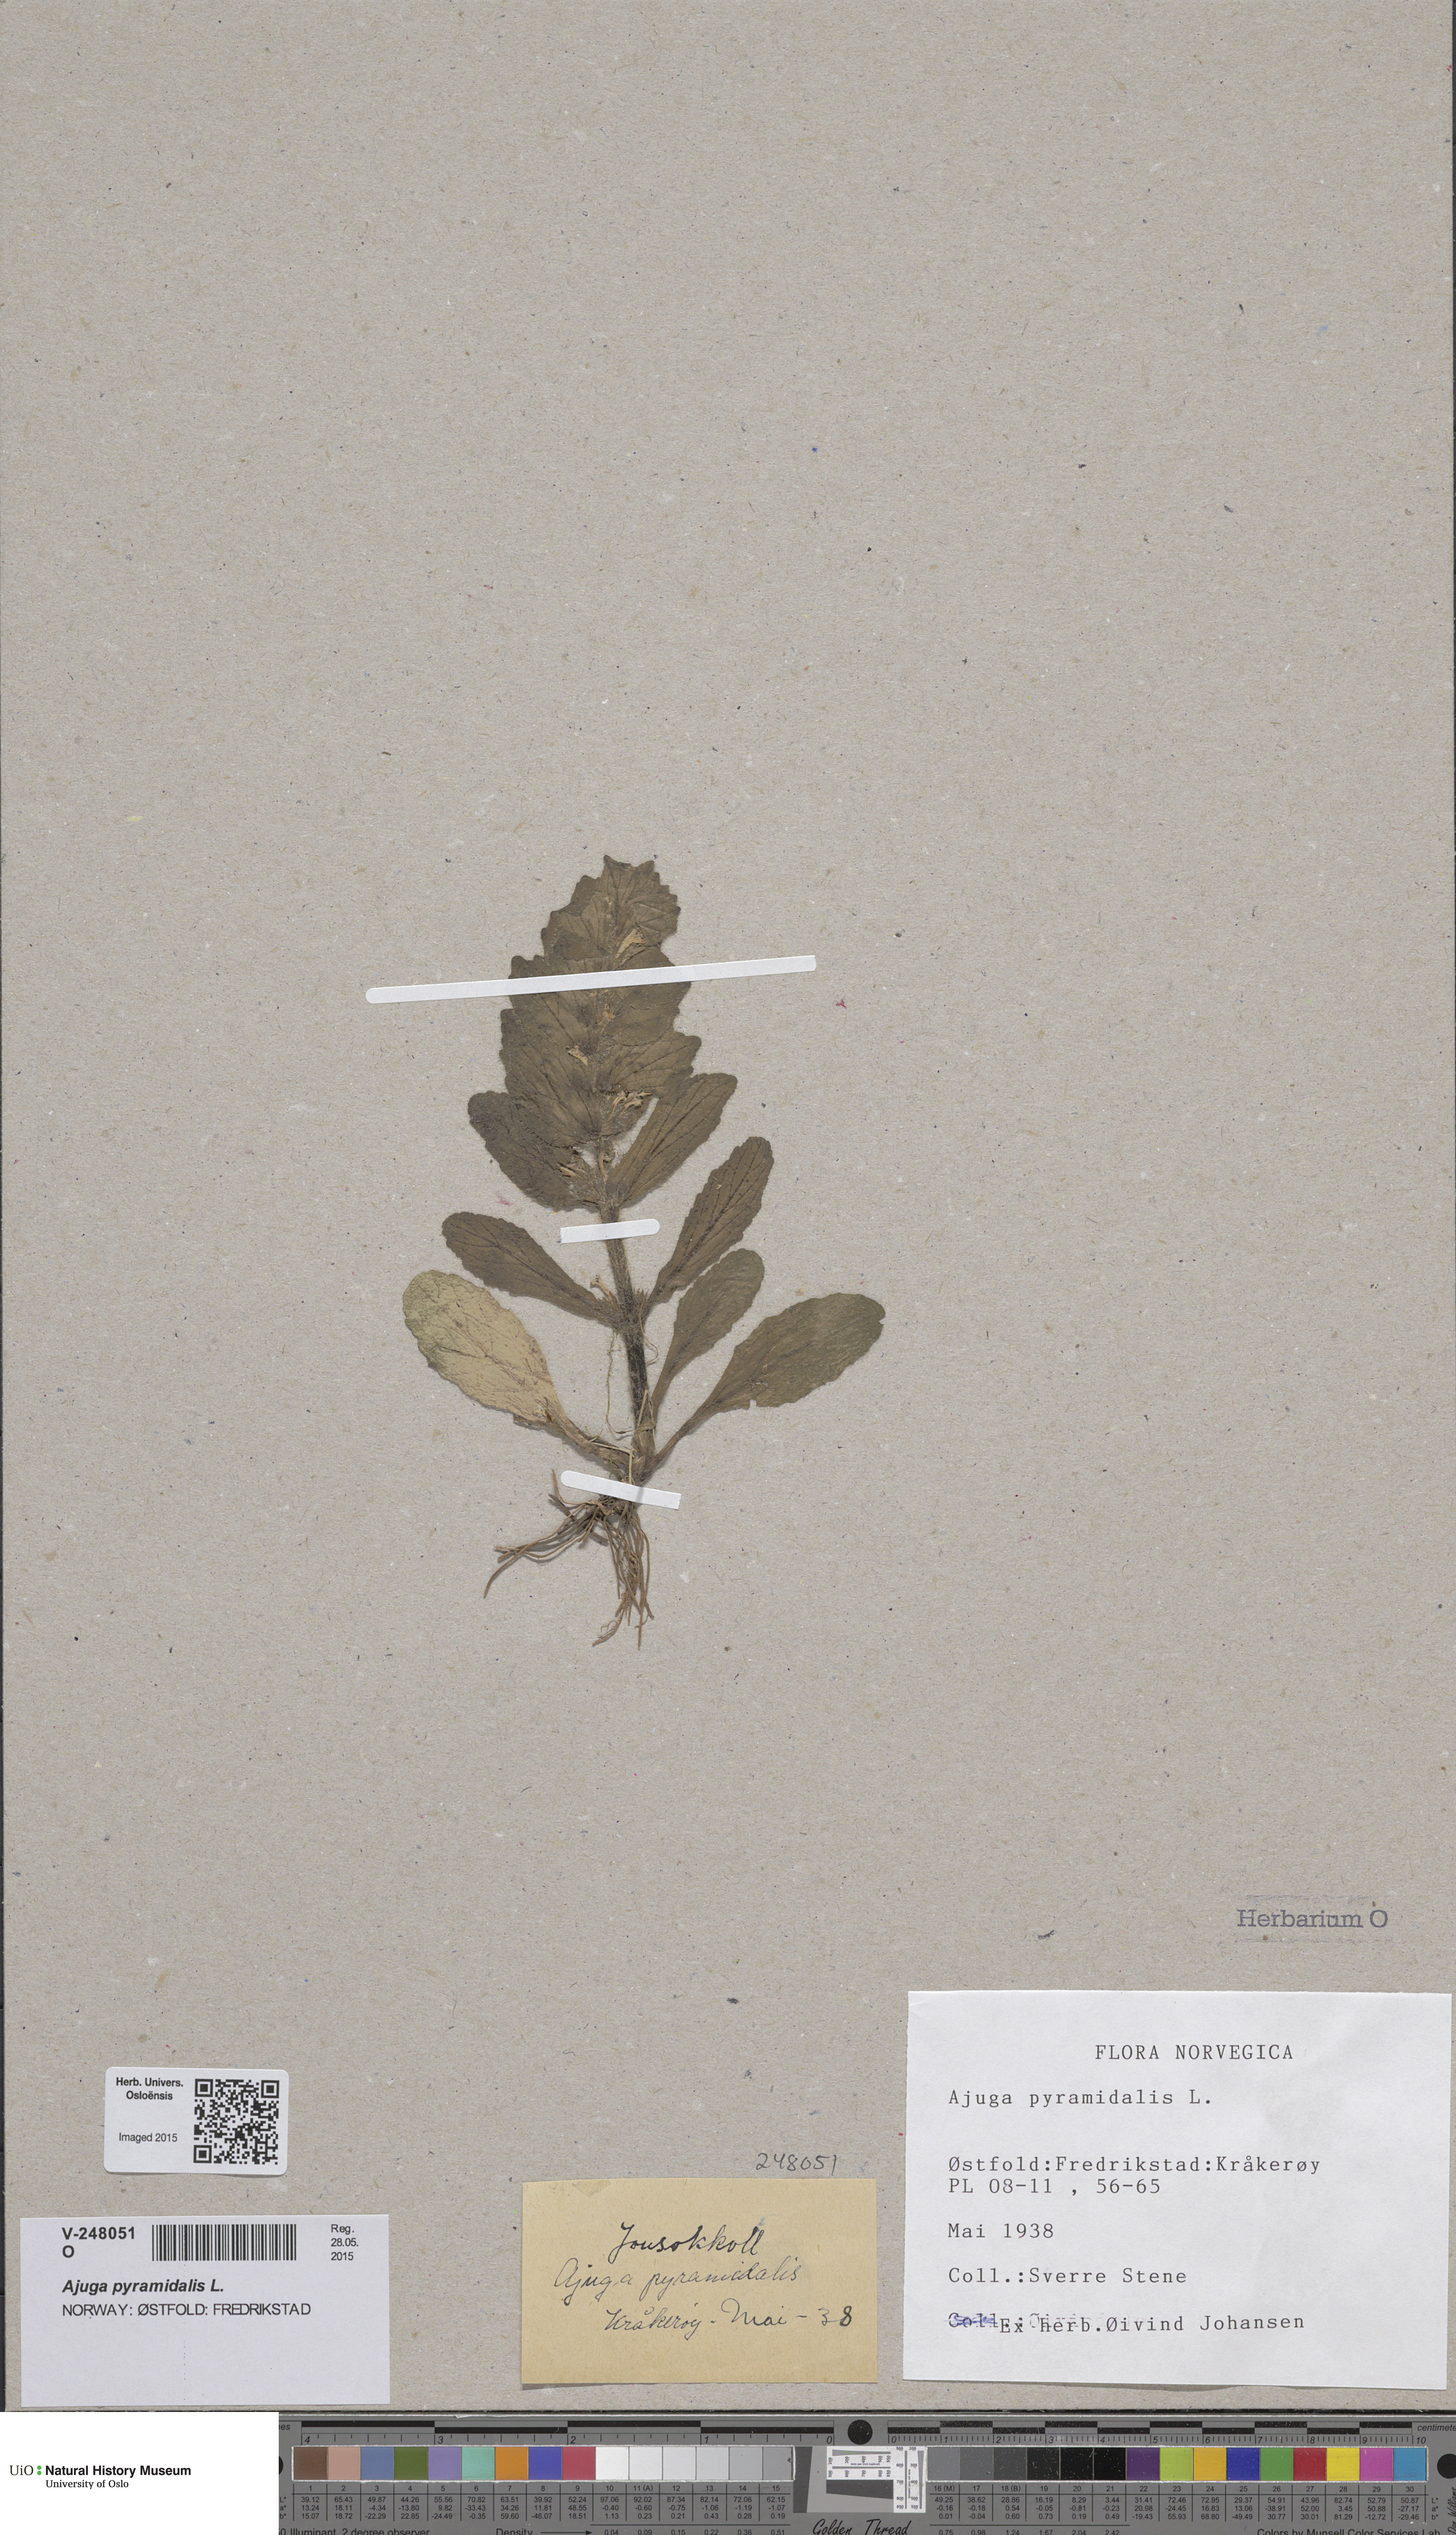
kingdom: Plantae
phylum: Tracheophyta
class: Magnoliopsida
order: Lamiales
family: Lamiaceae
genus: Ajuga
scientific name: Ajuga pyramidalis
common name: Pyramid bugle
